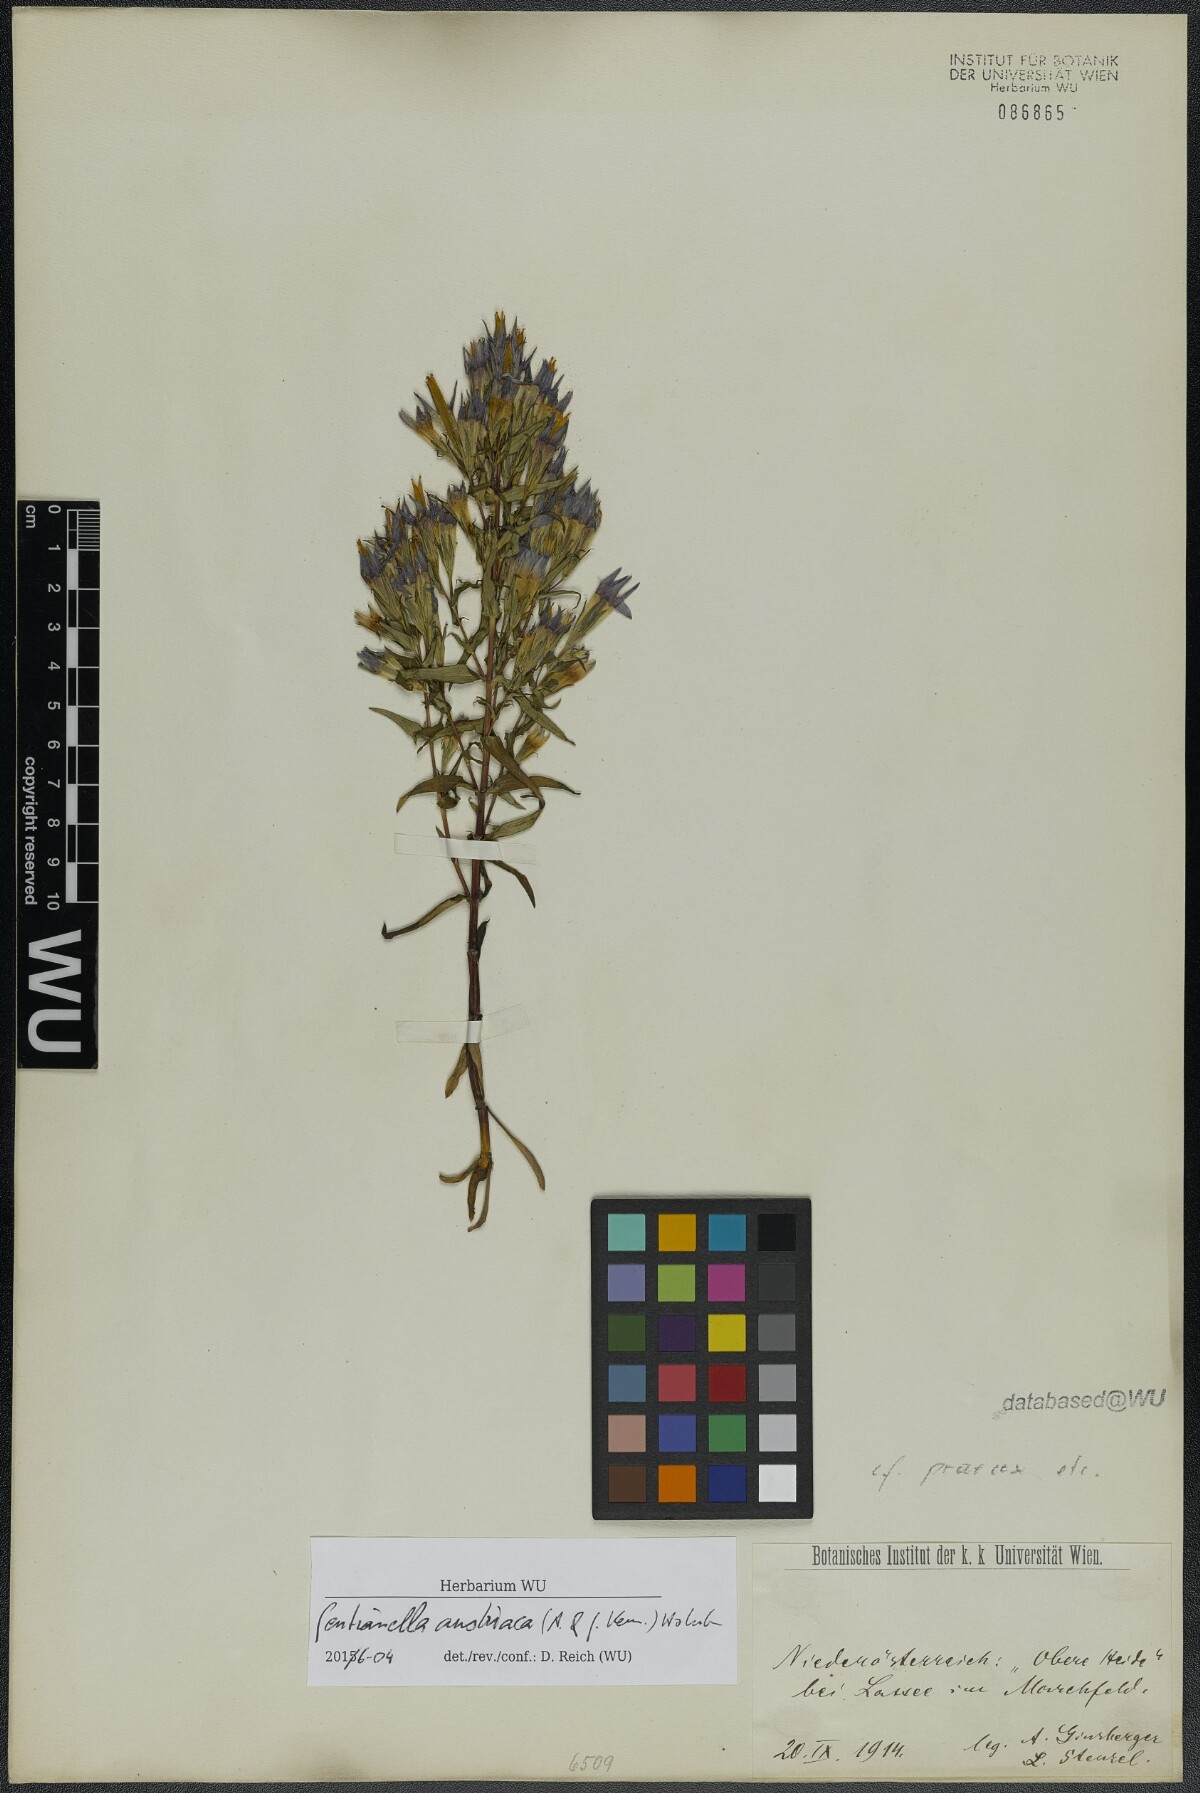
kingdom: Plantae
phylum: Tracheophyta
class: Magnoliopsida
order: Gentianales
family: Gentianaceae
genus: Gentianella
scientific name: Gentianella austriaca
